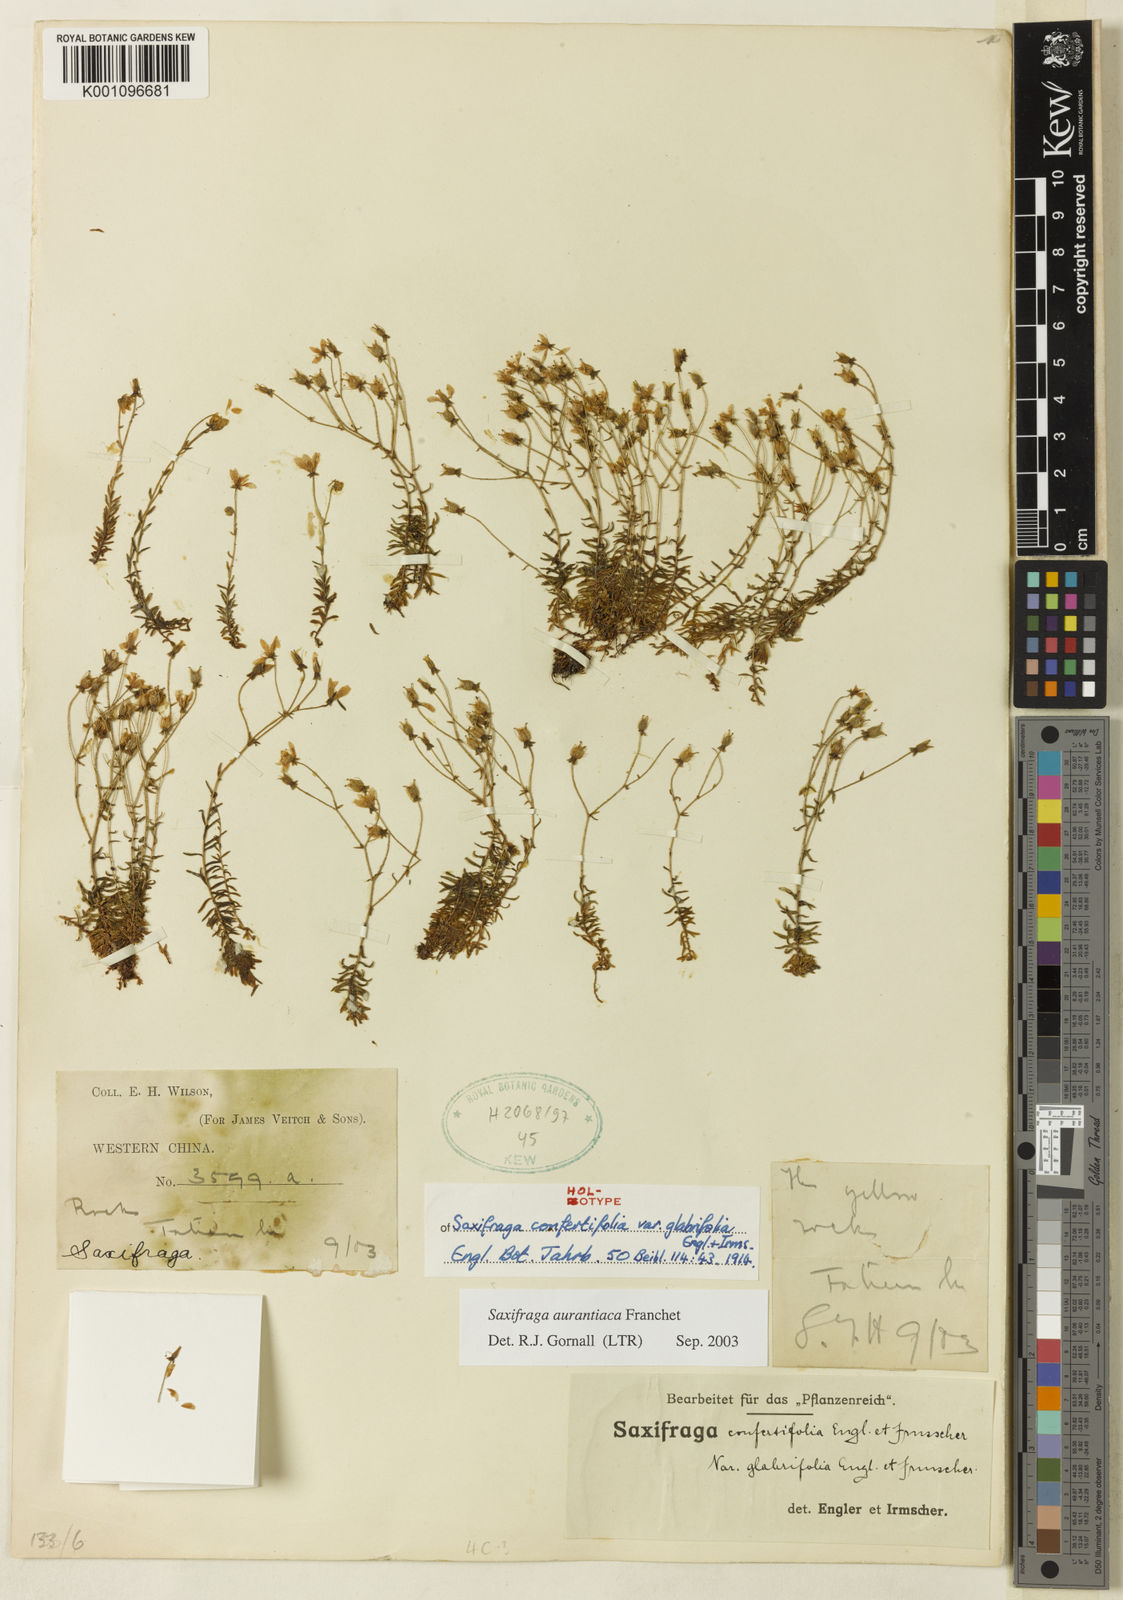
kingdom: Plantae
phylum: Tracheophyta
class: Magnoliopsida
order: Saxifragales
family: Saxifragaceae
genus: Saxifraga
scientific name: Saxifraga aurantiaca
